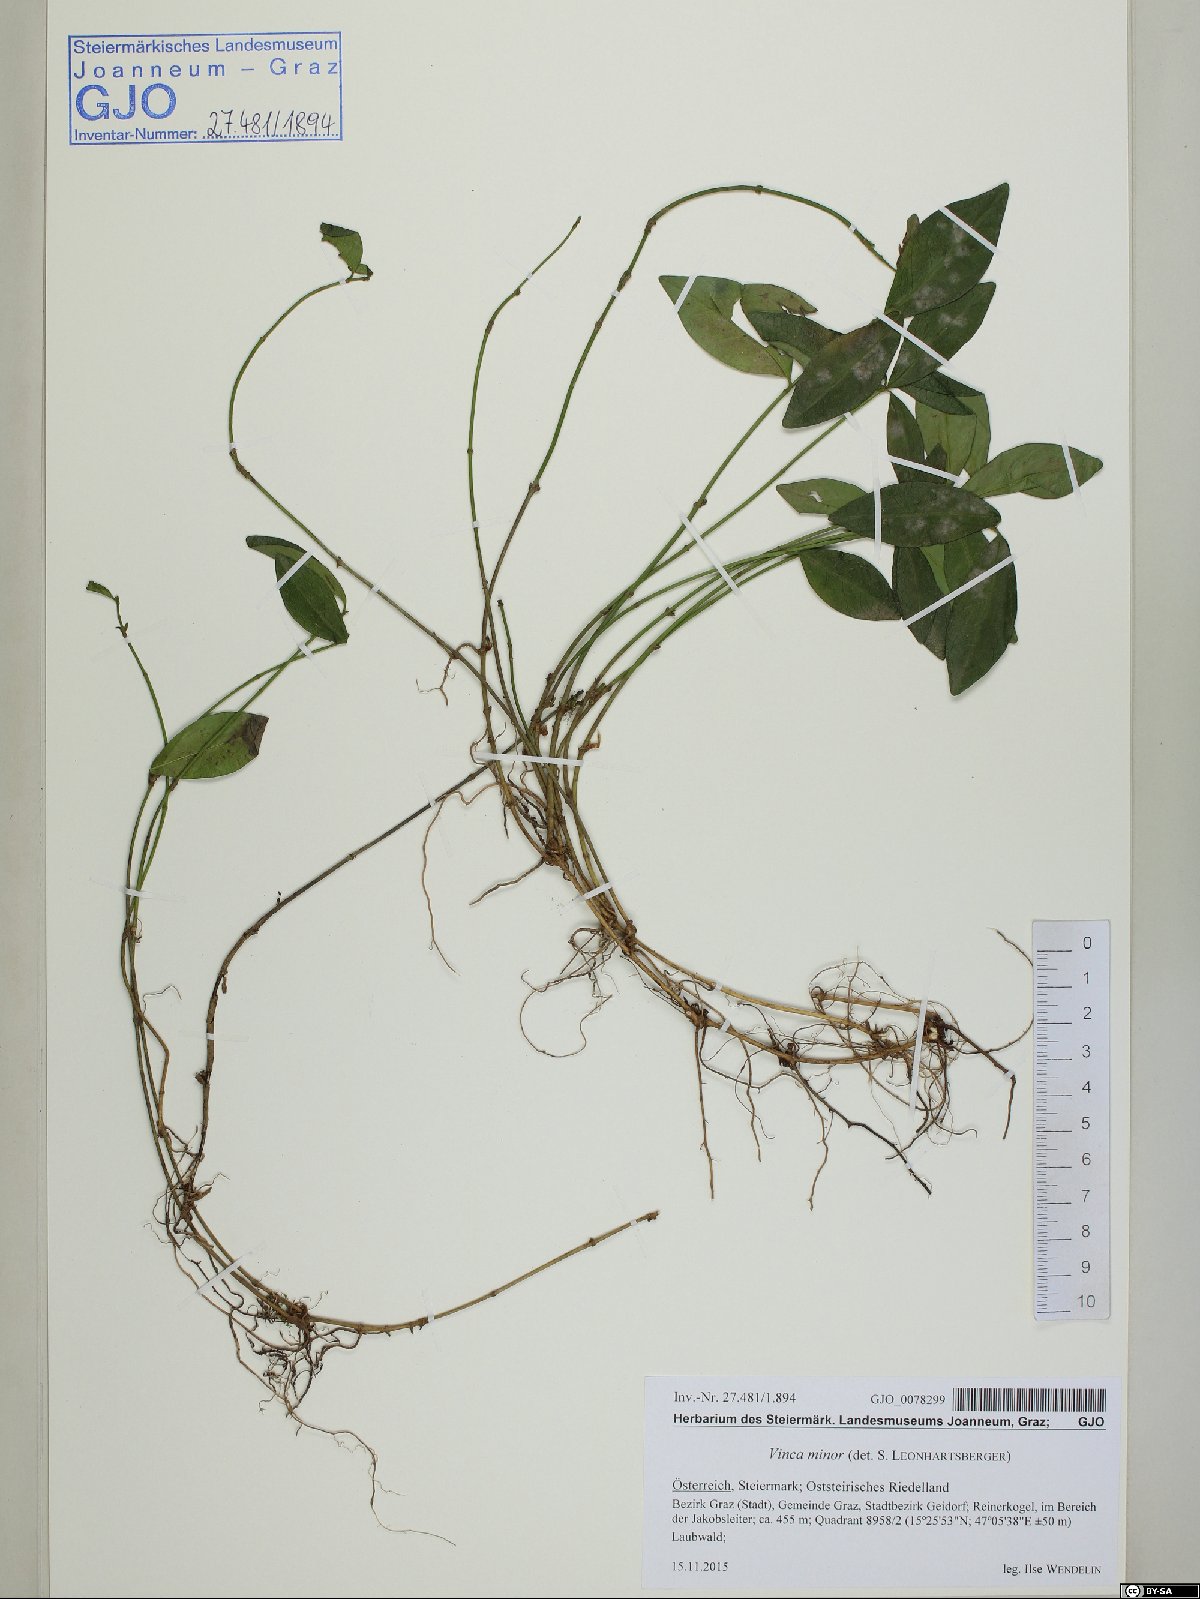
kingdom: Plantae
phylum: Tracheophyta
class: Magnoliopsida
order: Gentianales
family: Apocynaceae
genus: Vinca
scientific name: Vinca minor
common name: Lesser periwinkle
